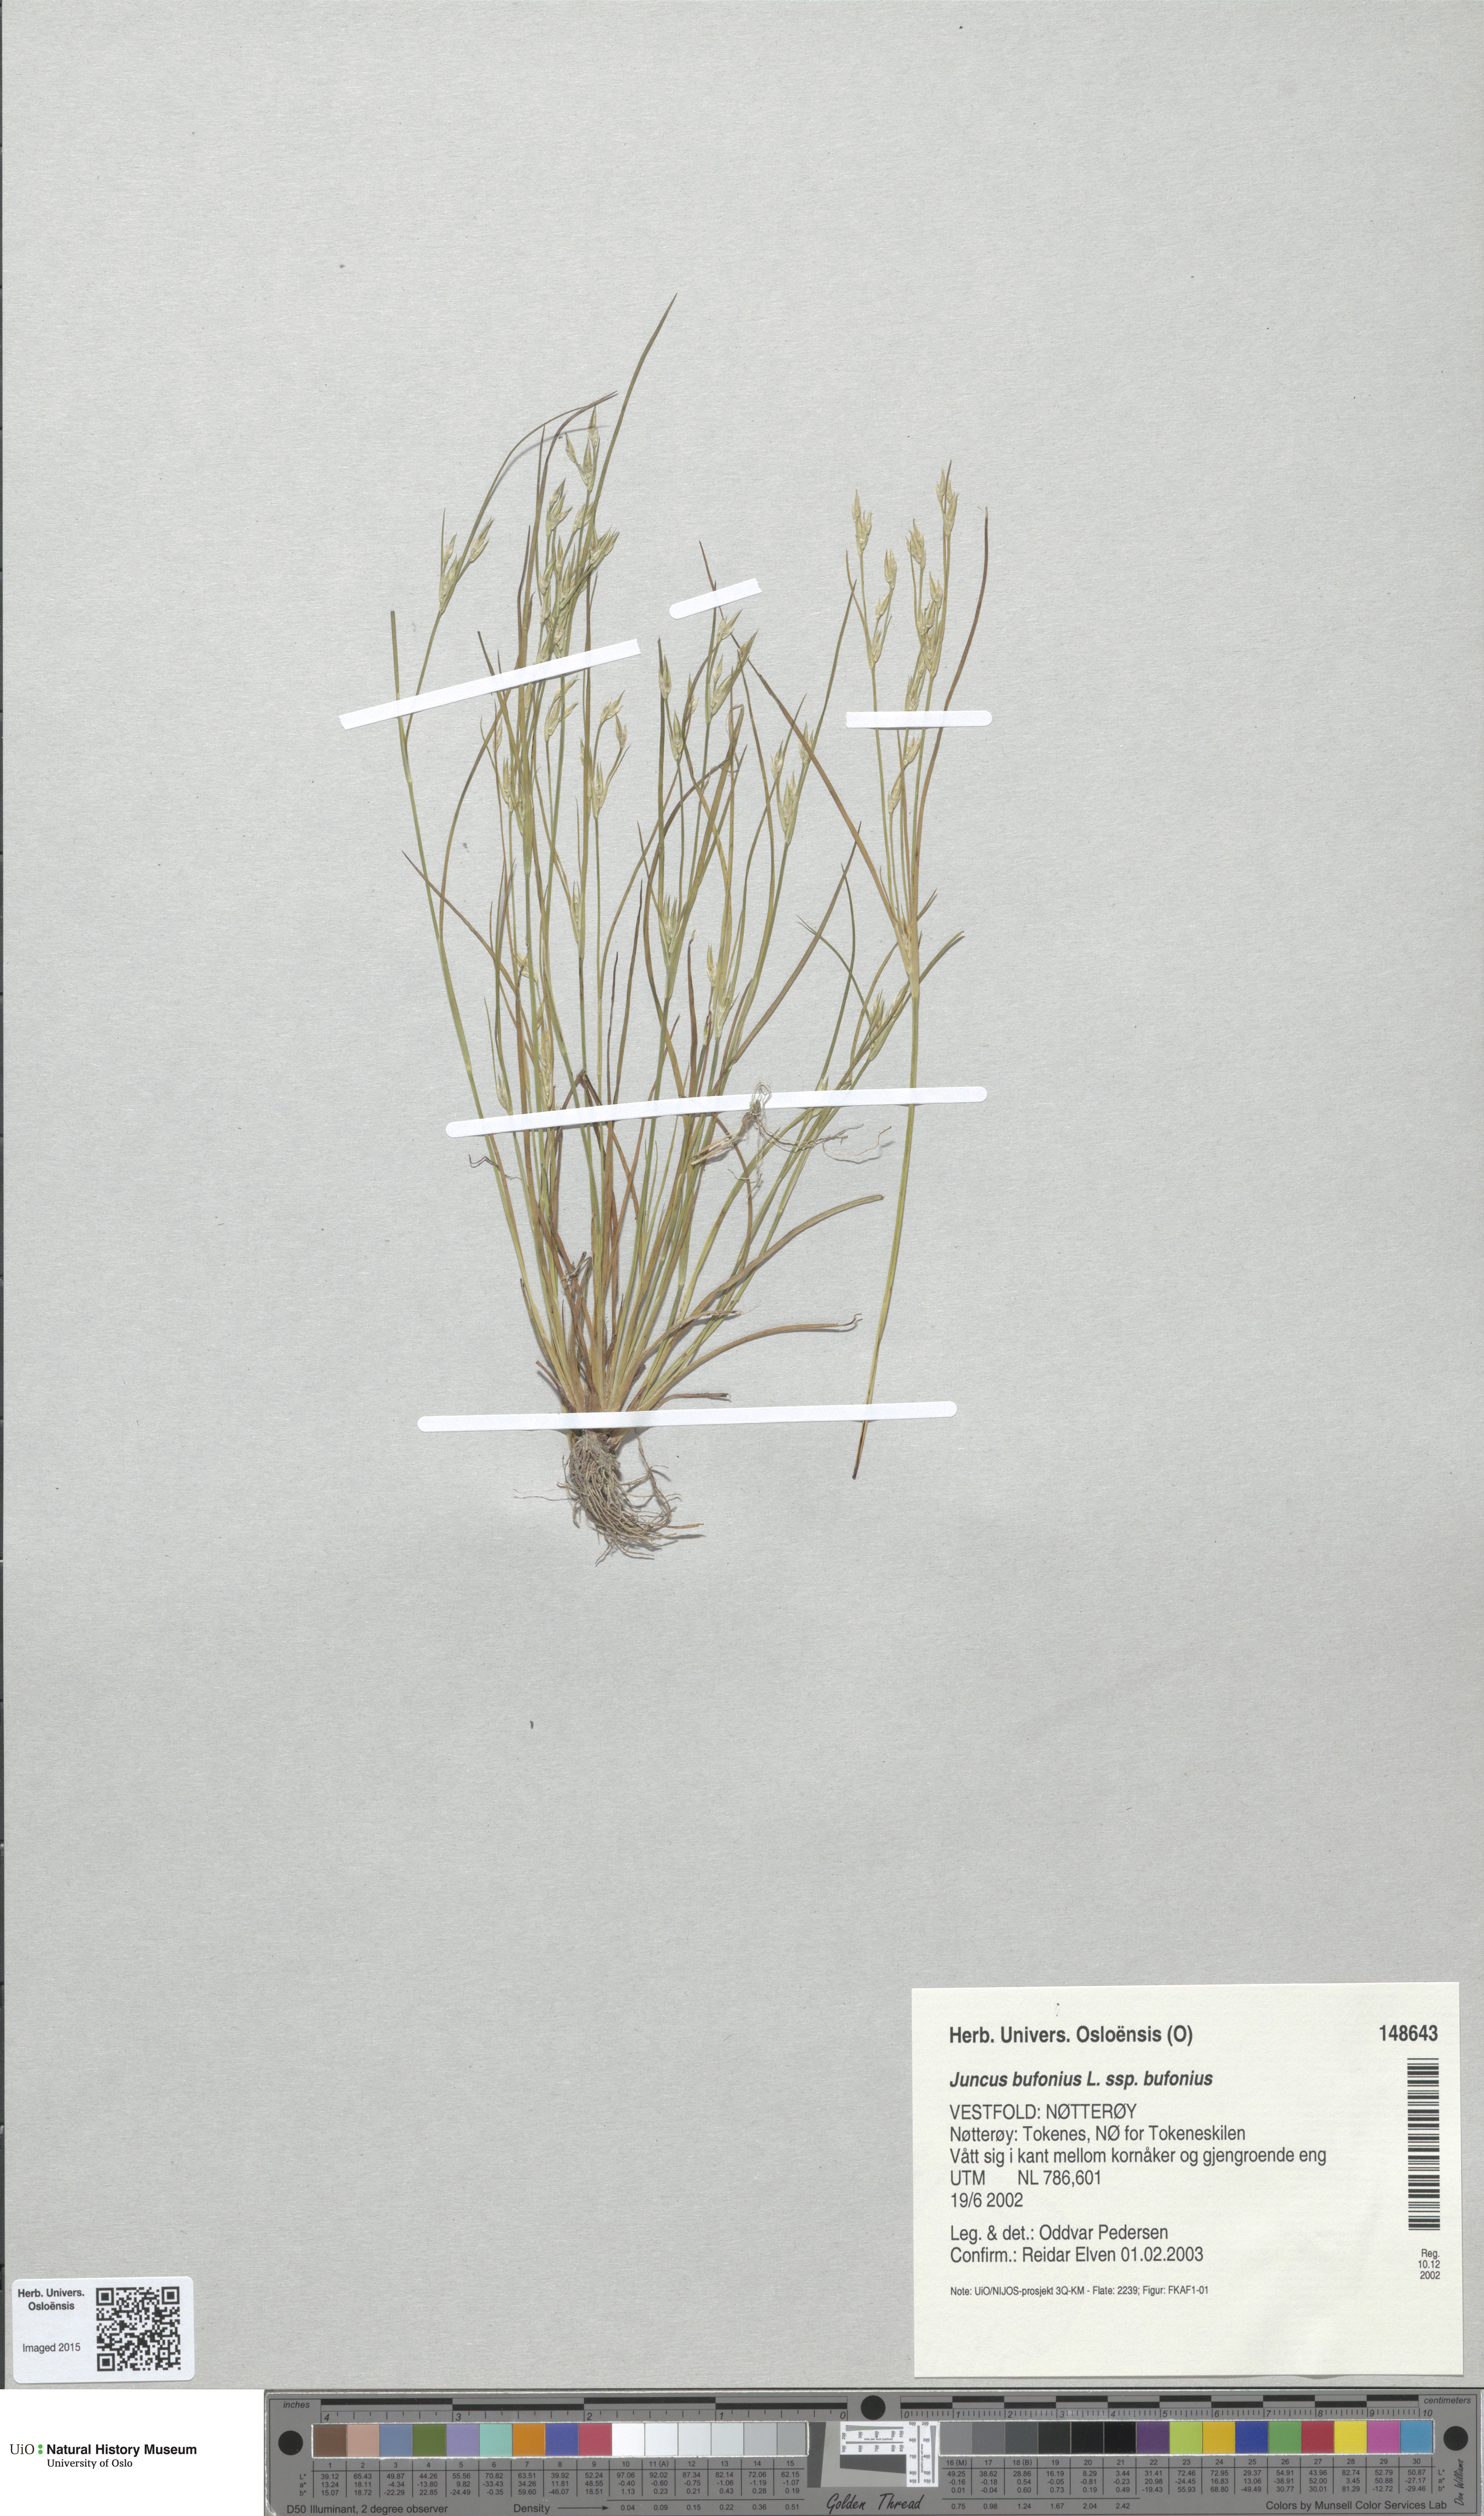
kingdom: Plantae
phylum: Tracheophyta
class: Liliopsida
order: Poales
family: Juncaceae
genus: Juncus
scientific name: Juncus bufonius
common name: Toad rush
